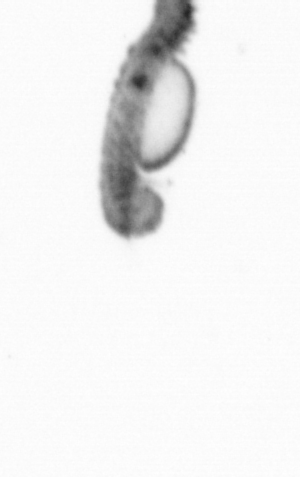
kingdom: Animalia
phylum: Annelida
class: Polychaeta
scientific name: Polychaeta
